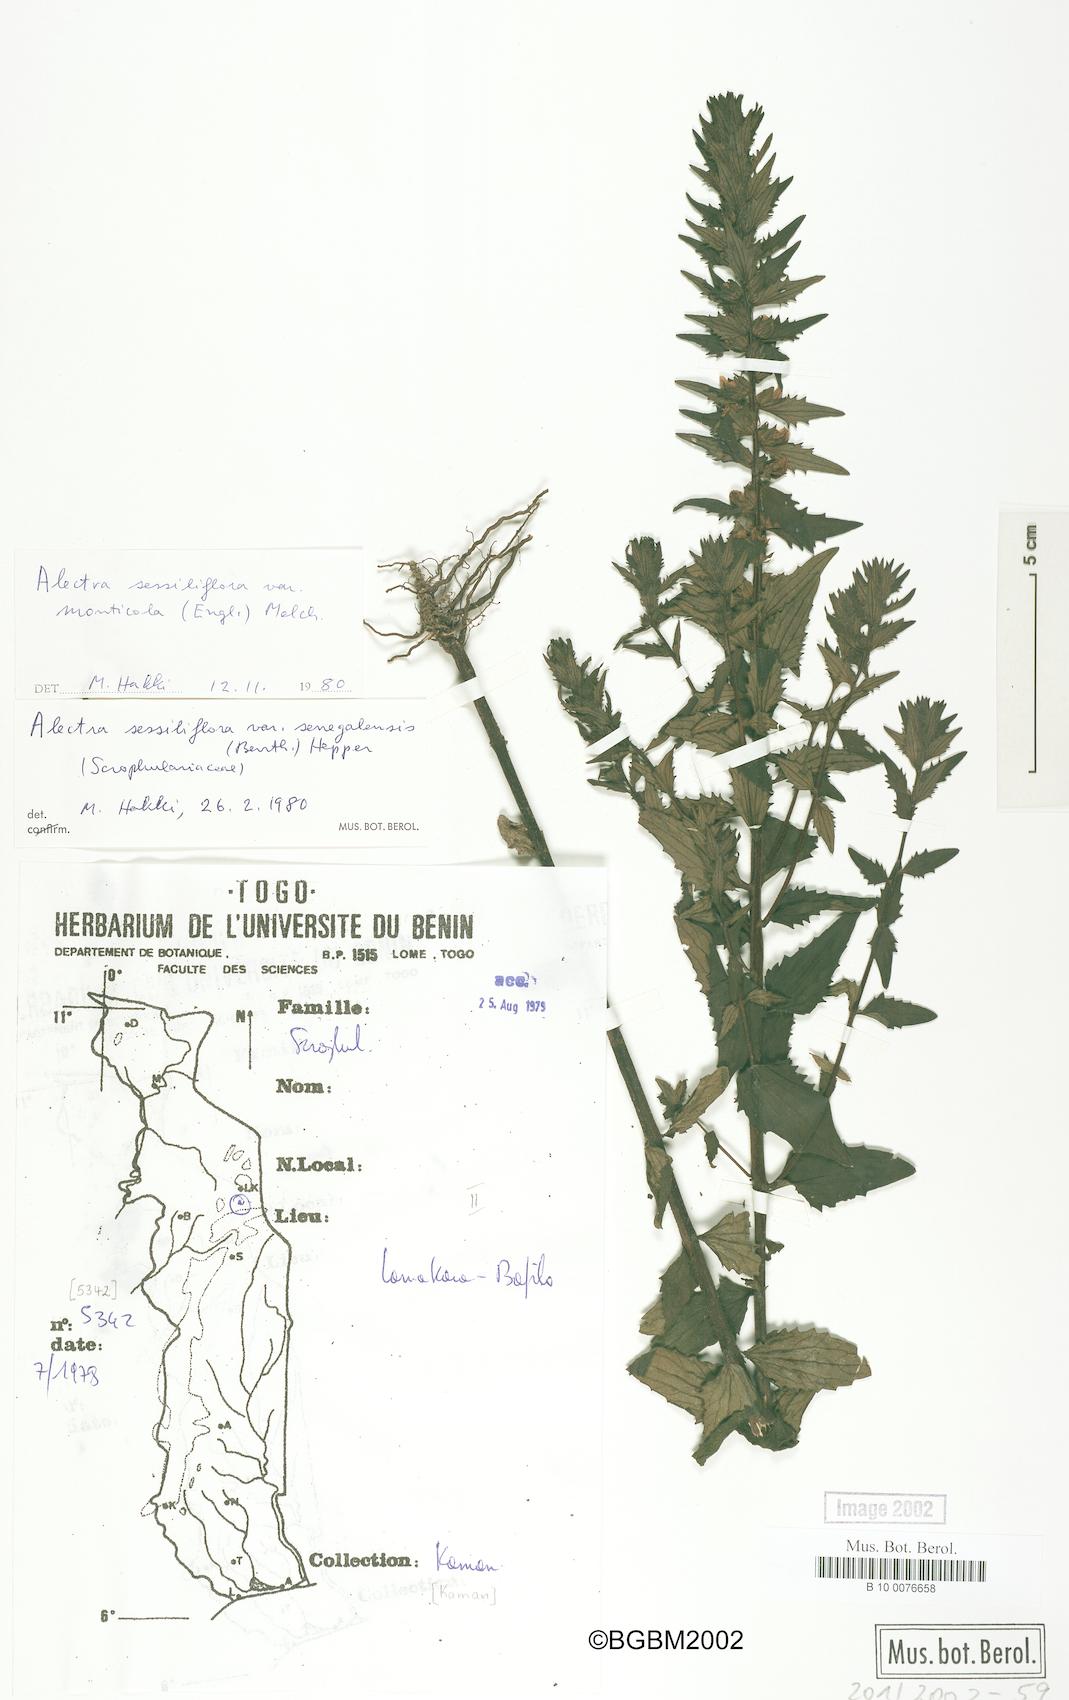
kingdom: Plantae
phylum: Tracheophyta
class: Magnoliopsida
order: Lamiales
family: Orobanchaceae
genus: Alectra
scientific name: Alectra sessiliflora
